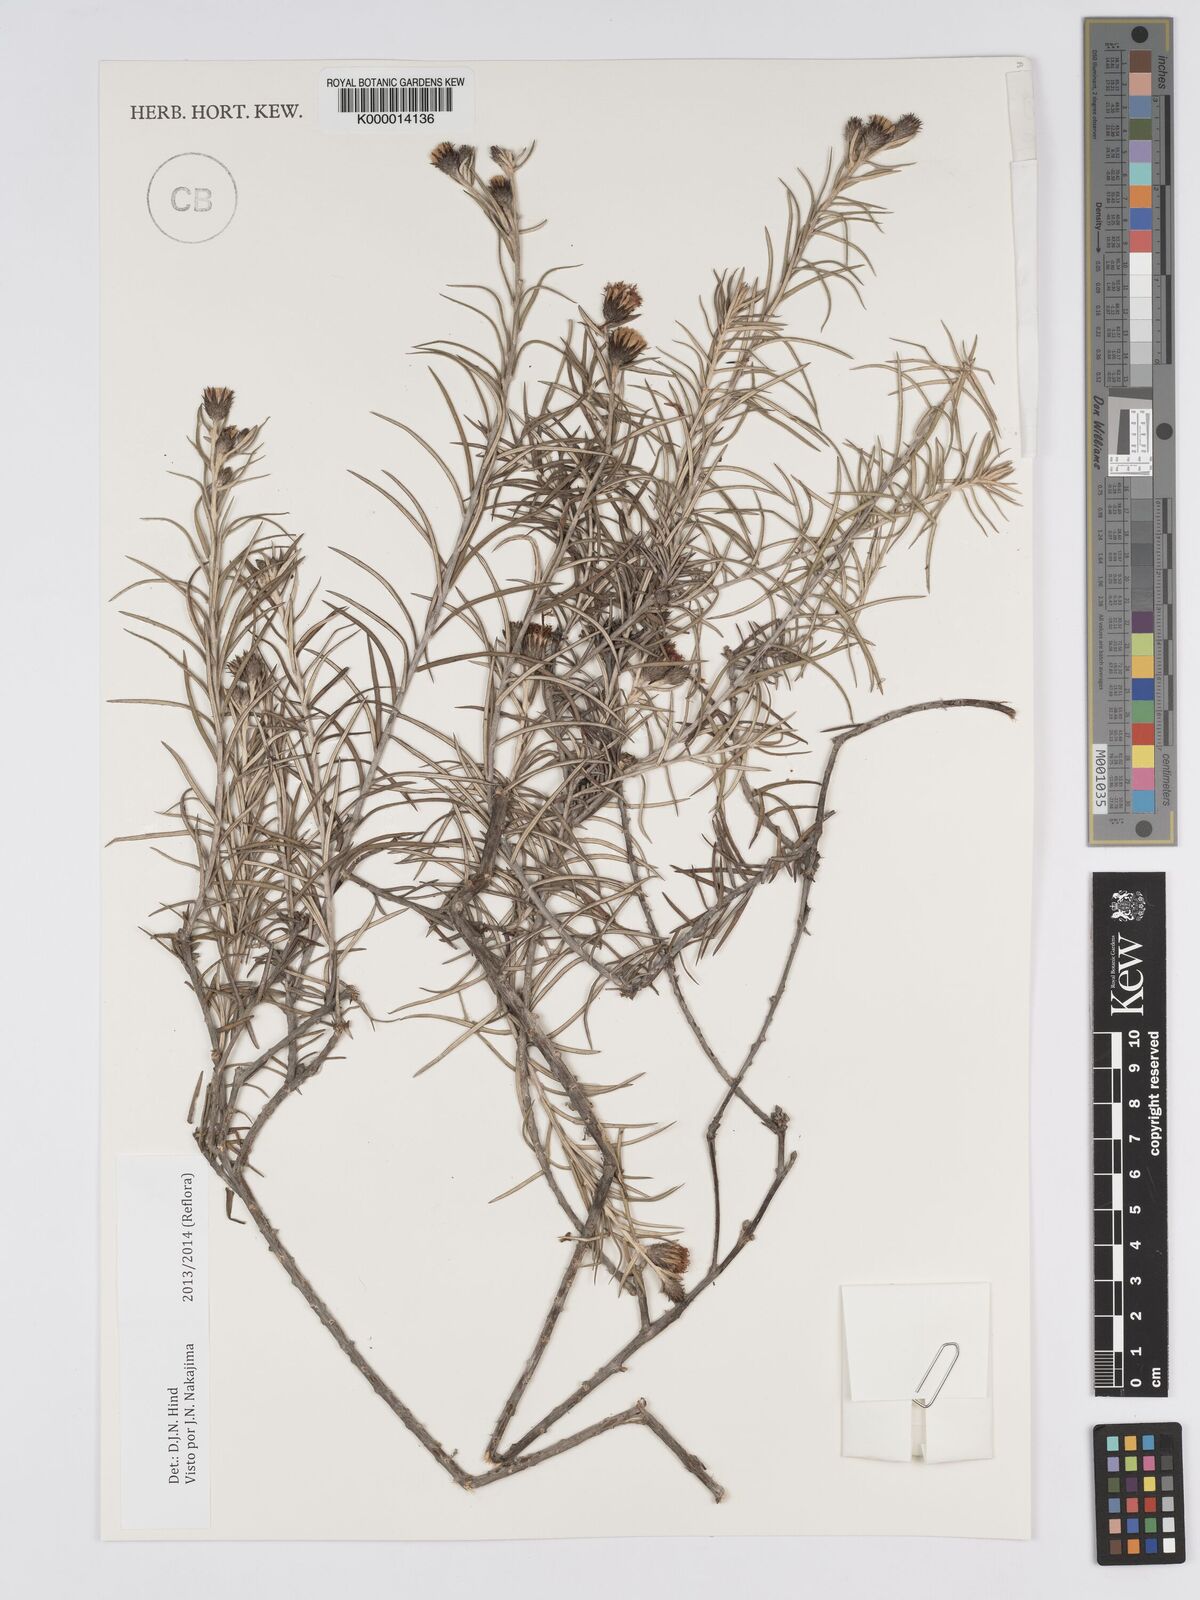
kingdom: Plantae
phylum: Tracheophyta
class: Magnoliopsida
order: Asterales
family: Asteraceae
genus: Lessingianthus
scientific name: Lessingianthus linearis
